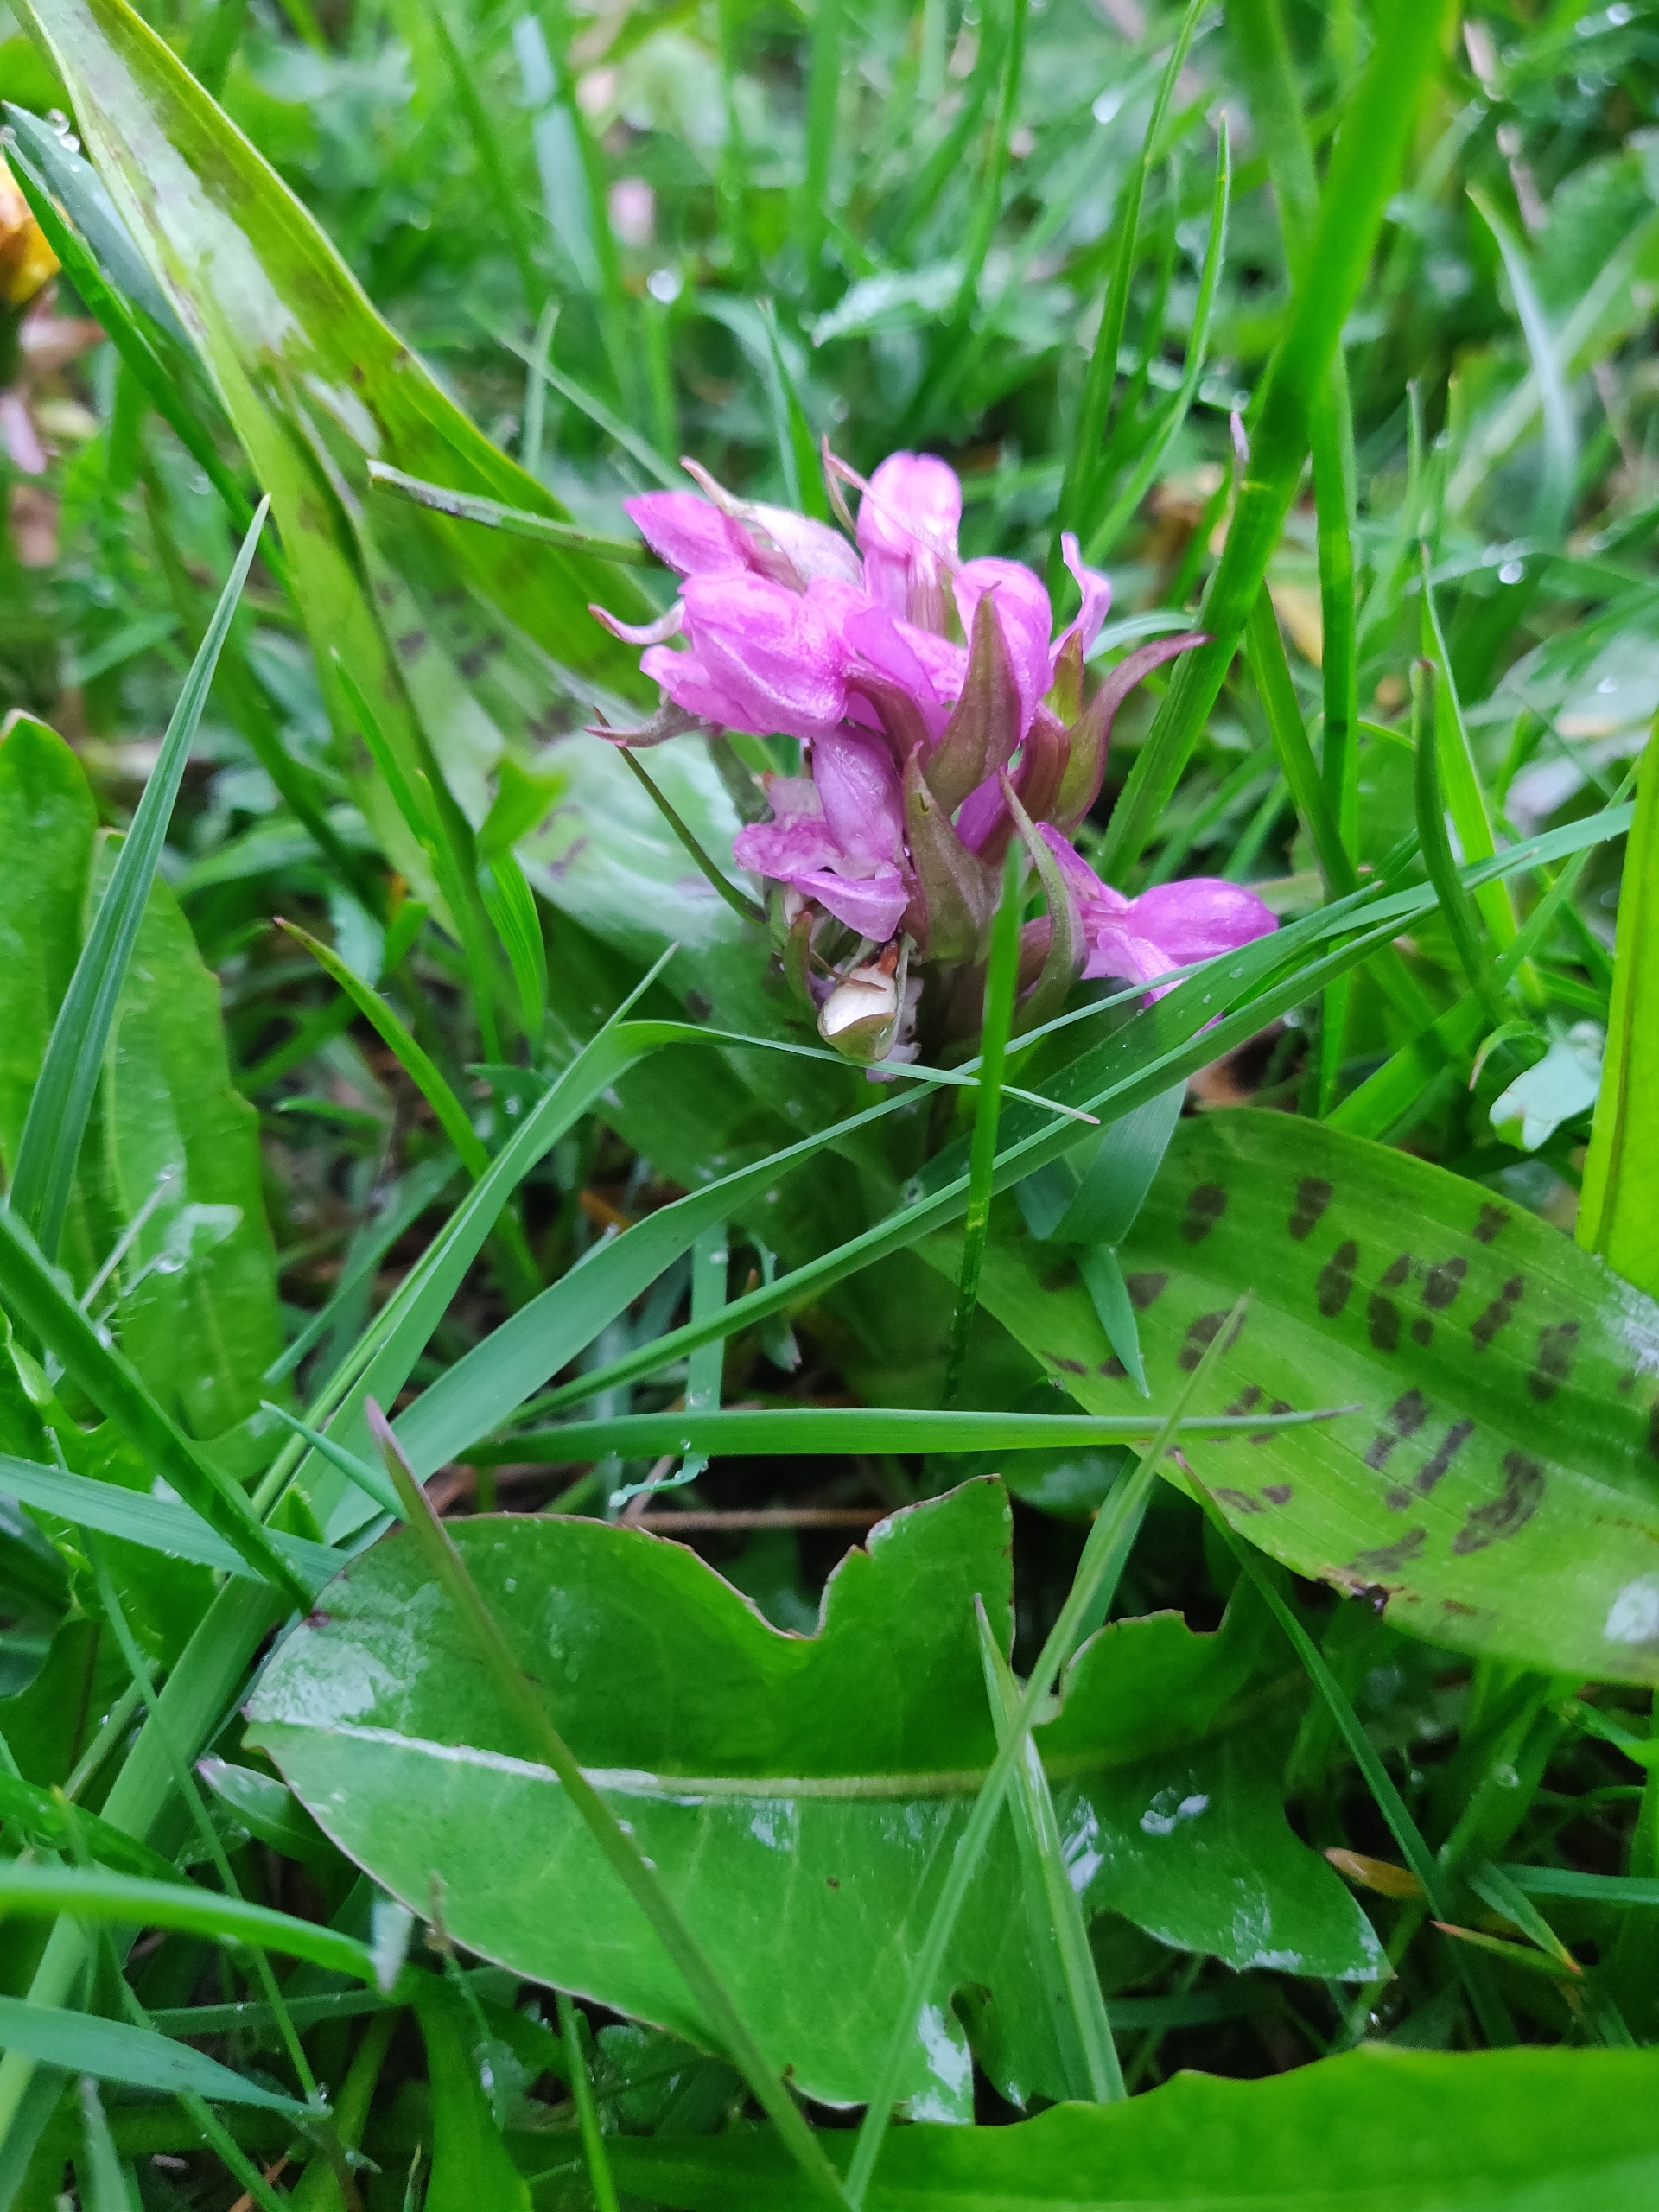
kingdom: Plantae
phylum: Tracheophyta
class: Liliopsida
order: Asparagales
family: Orchidaceae
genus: Dactylorhiza
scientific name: Dactylorhiza majalis
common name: Maj-gøgeurt
